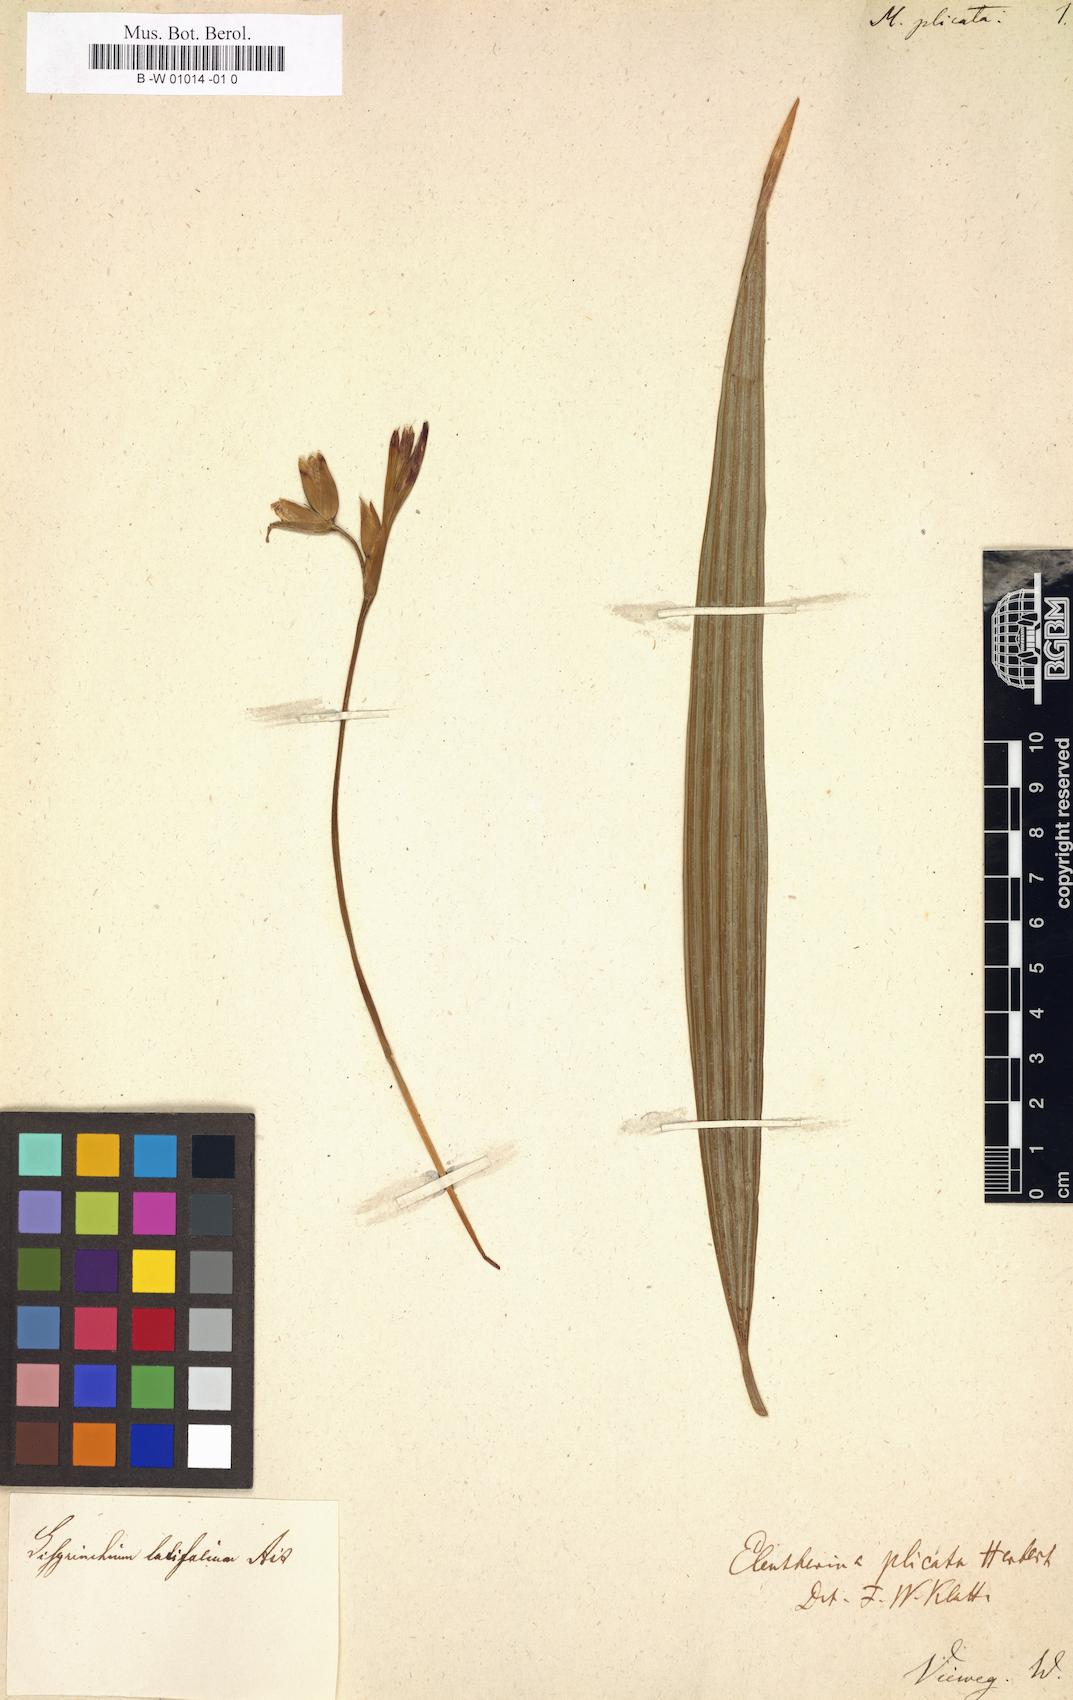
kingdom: Plantae
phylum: Tracheophyta
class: Liliopsida
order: Asparagales
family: Iridaceae
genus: Moraea
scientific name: Moraea plicata
